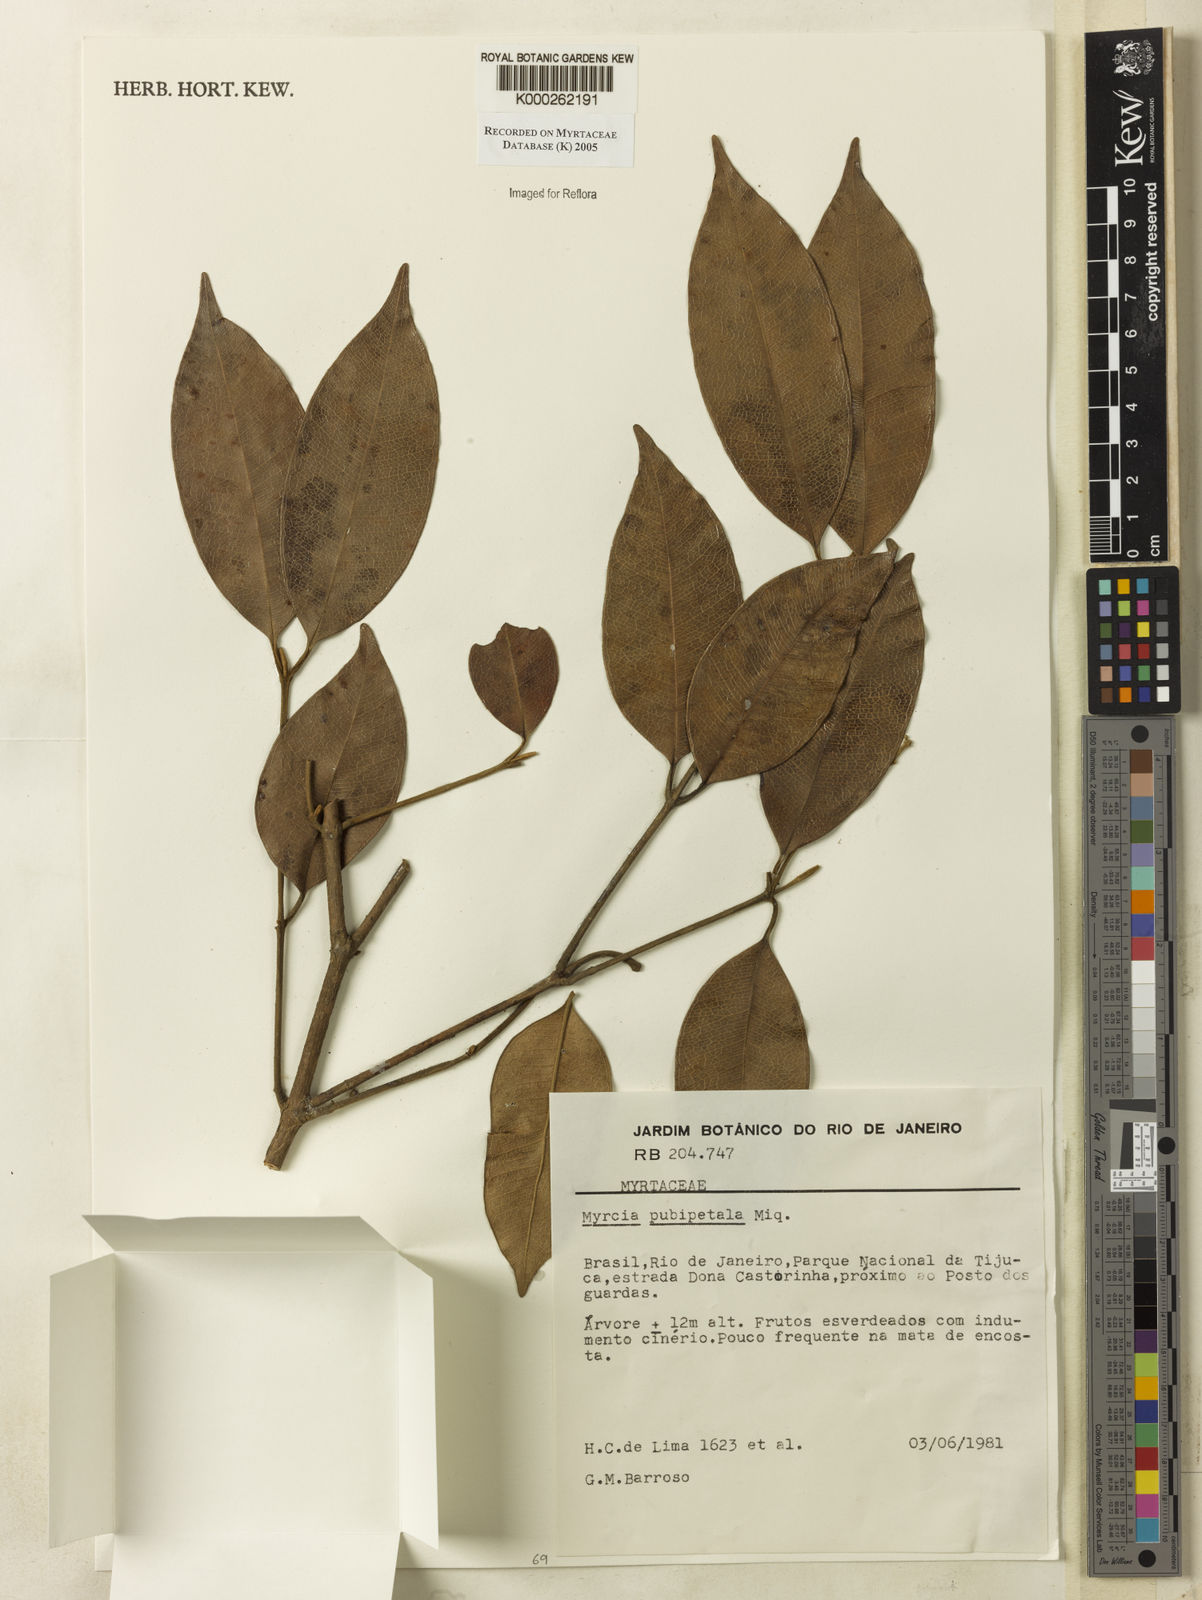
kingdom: Plantae
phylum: Tracheophyta
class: Magnoliopsida
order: Myrtales
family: Myrtaceae
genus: Myrcia
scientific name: Myrcia pubipetala
